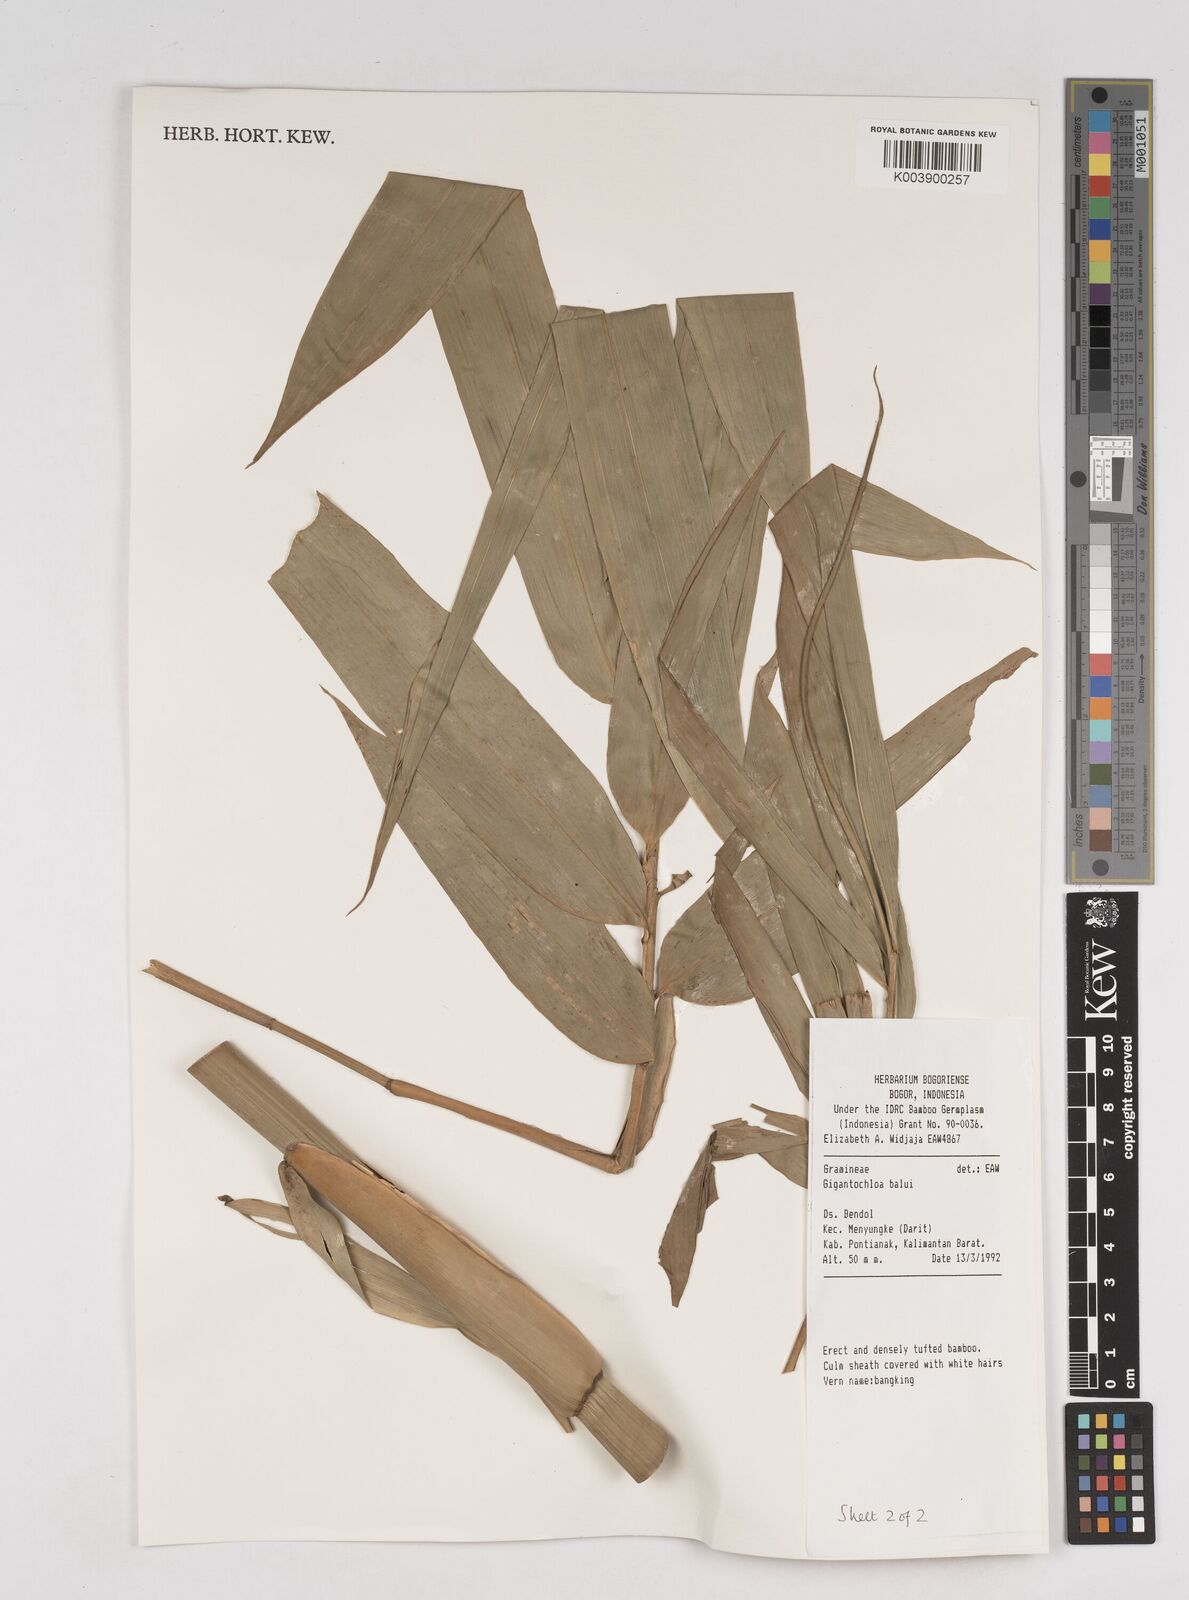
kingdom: Plantae
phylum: Tracheophyta
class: Liliopsida
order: Poales
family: Poaceae
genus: Gigantochloa
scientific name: Gigantochloa balui
